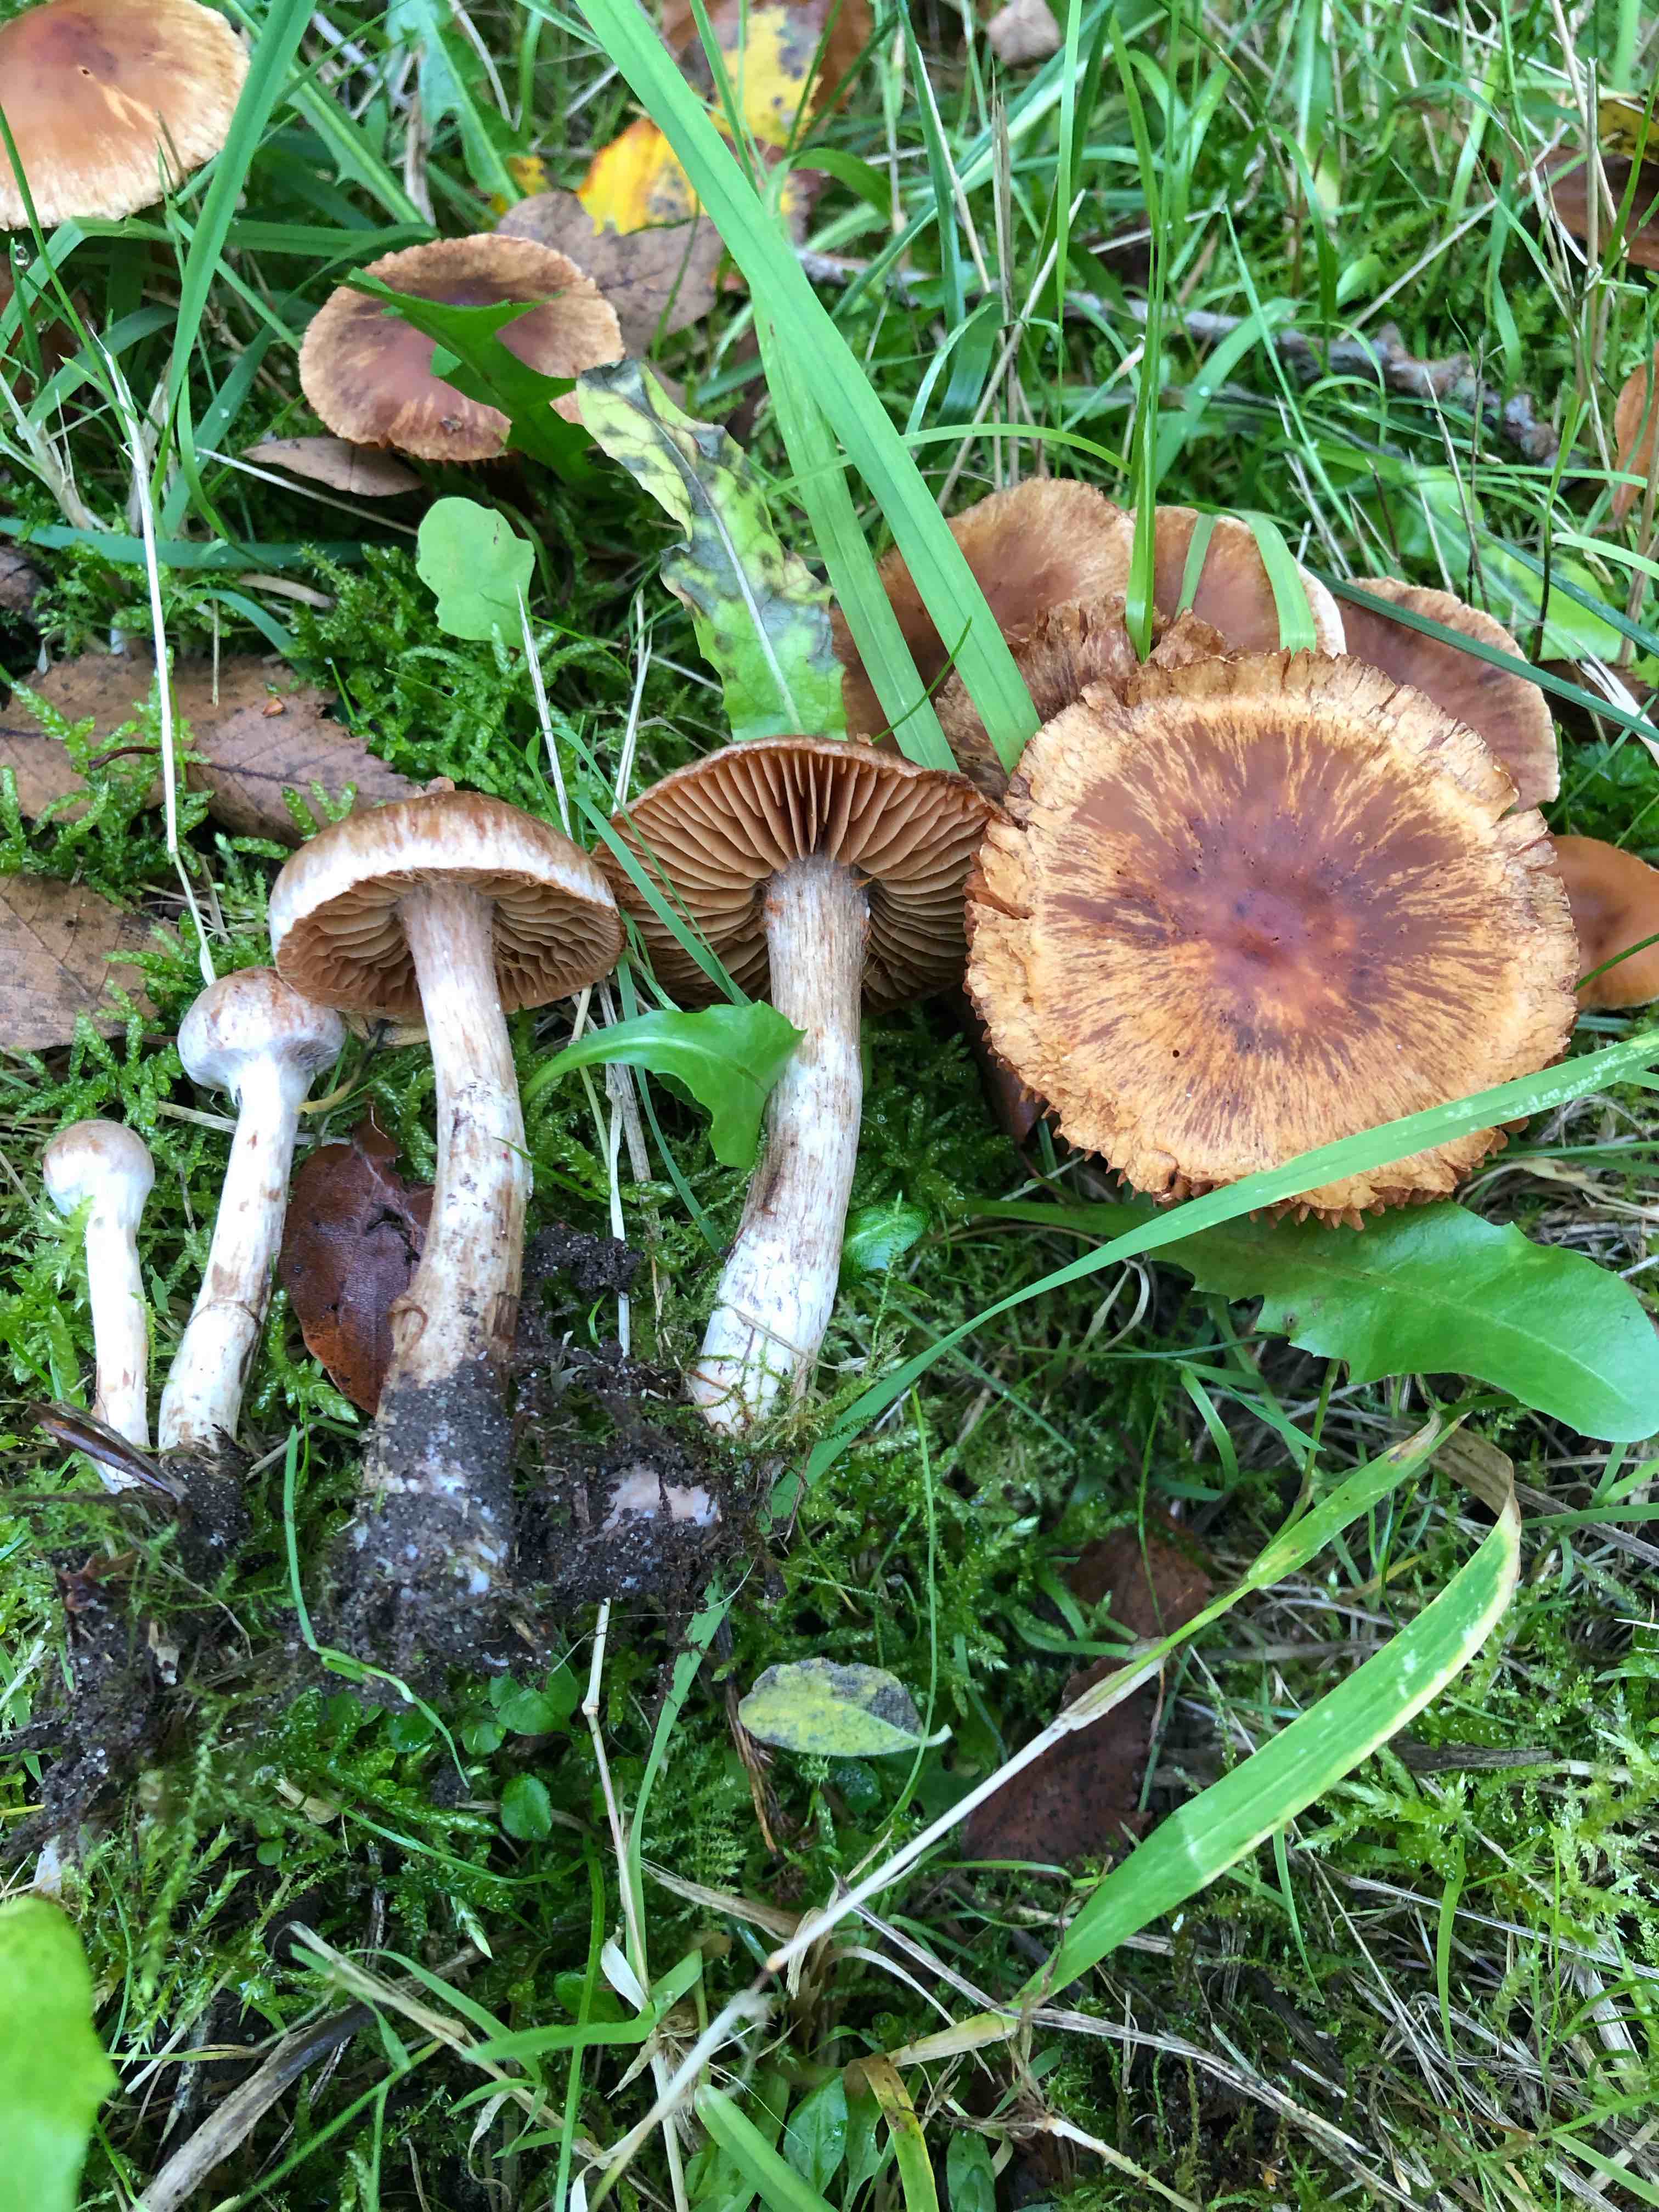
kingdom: Fungi
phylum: Basidiomycota
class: Agaricomycetes
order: Agaricales
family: Cortinariaceae
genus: Cortinarius
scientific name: Cortinarius hinnuleus
